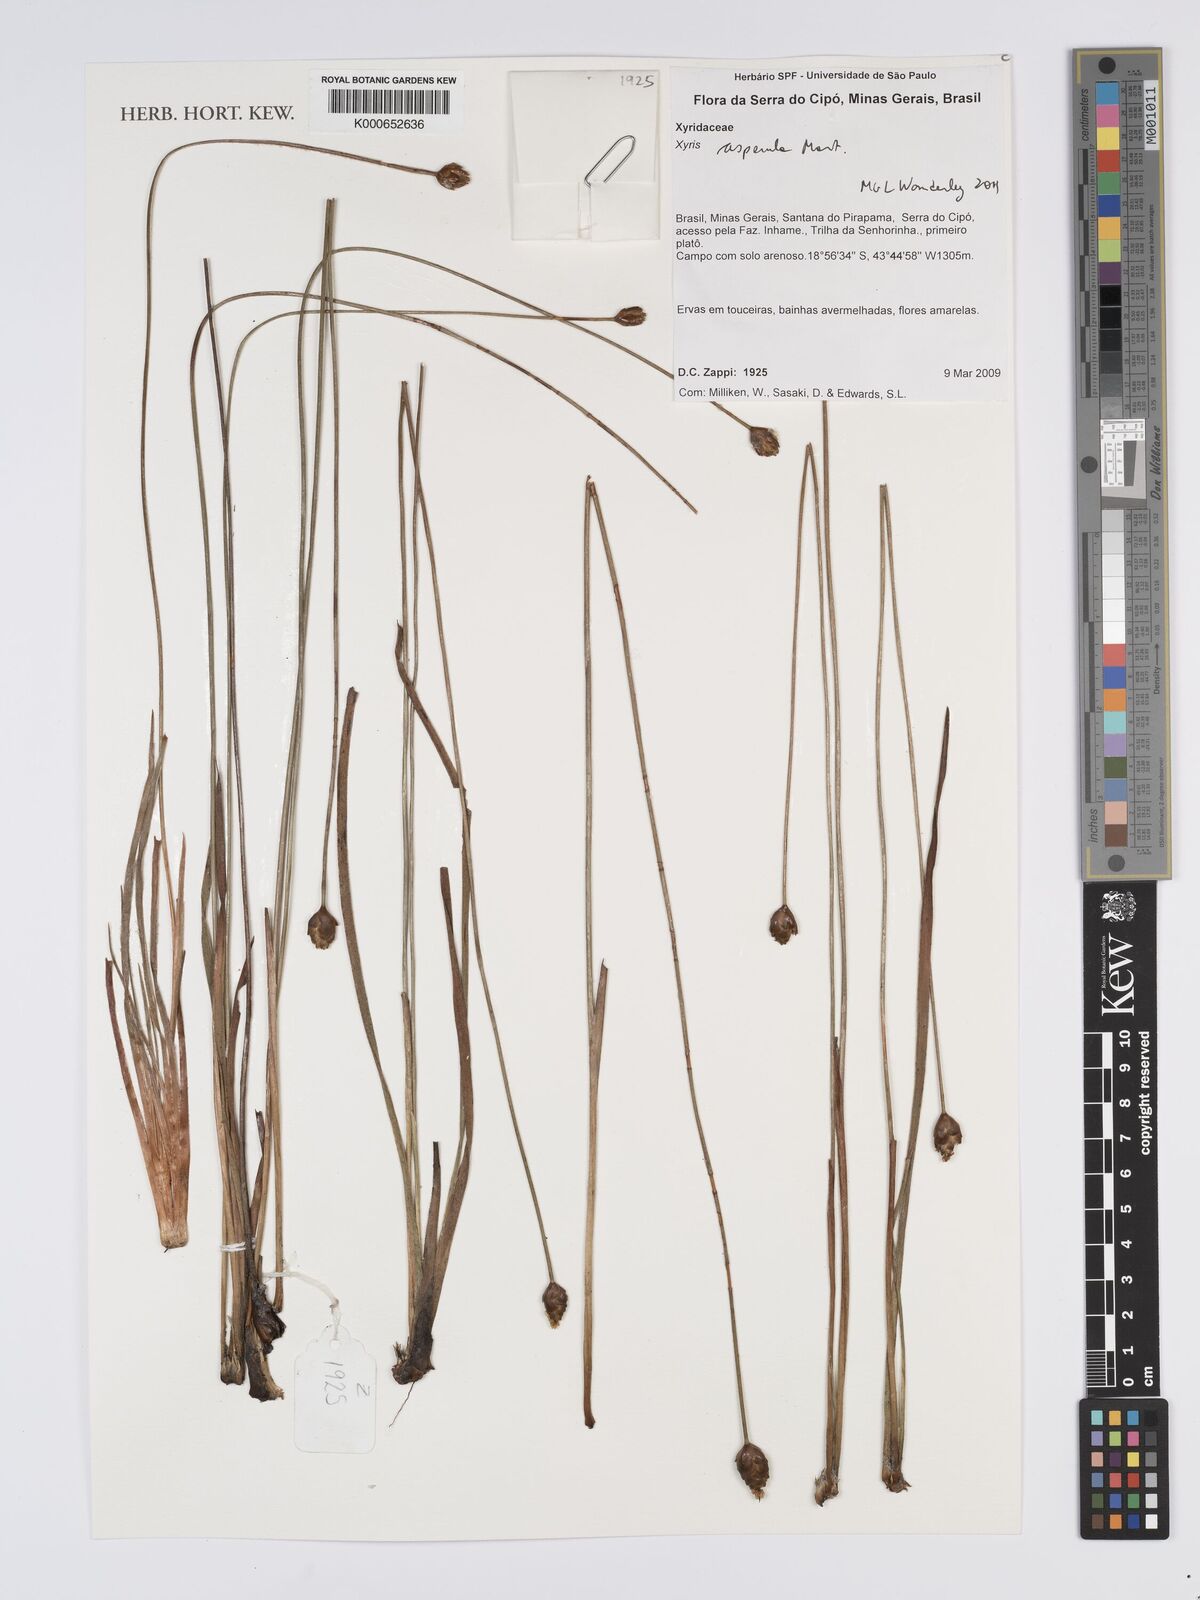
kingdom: Plantae
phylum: Tracheophyta
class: Liliopsida
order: Poales
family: Xyridaceae
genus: Xyris
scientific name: Xyris asperula
